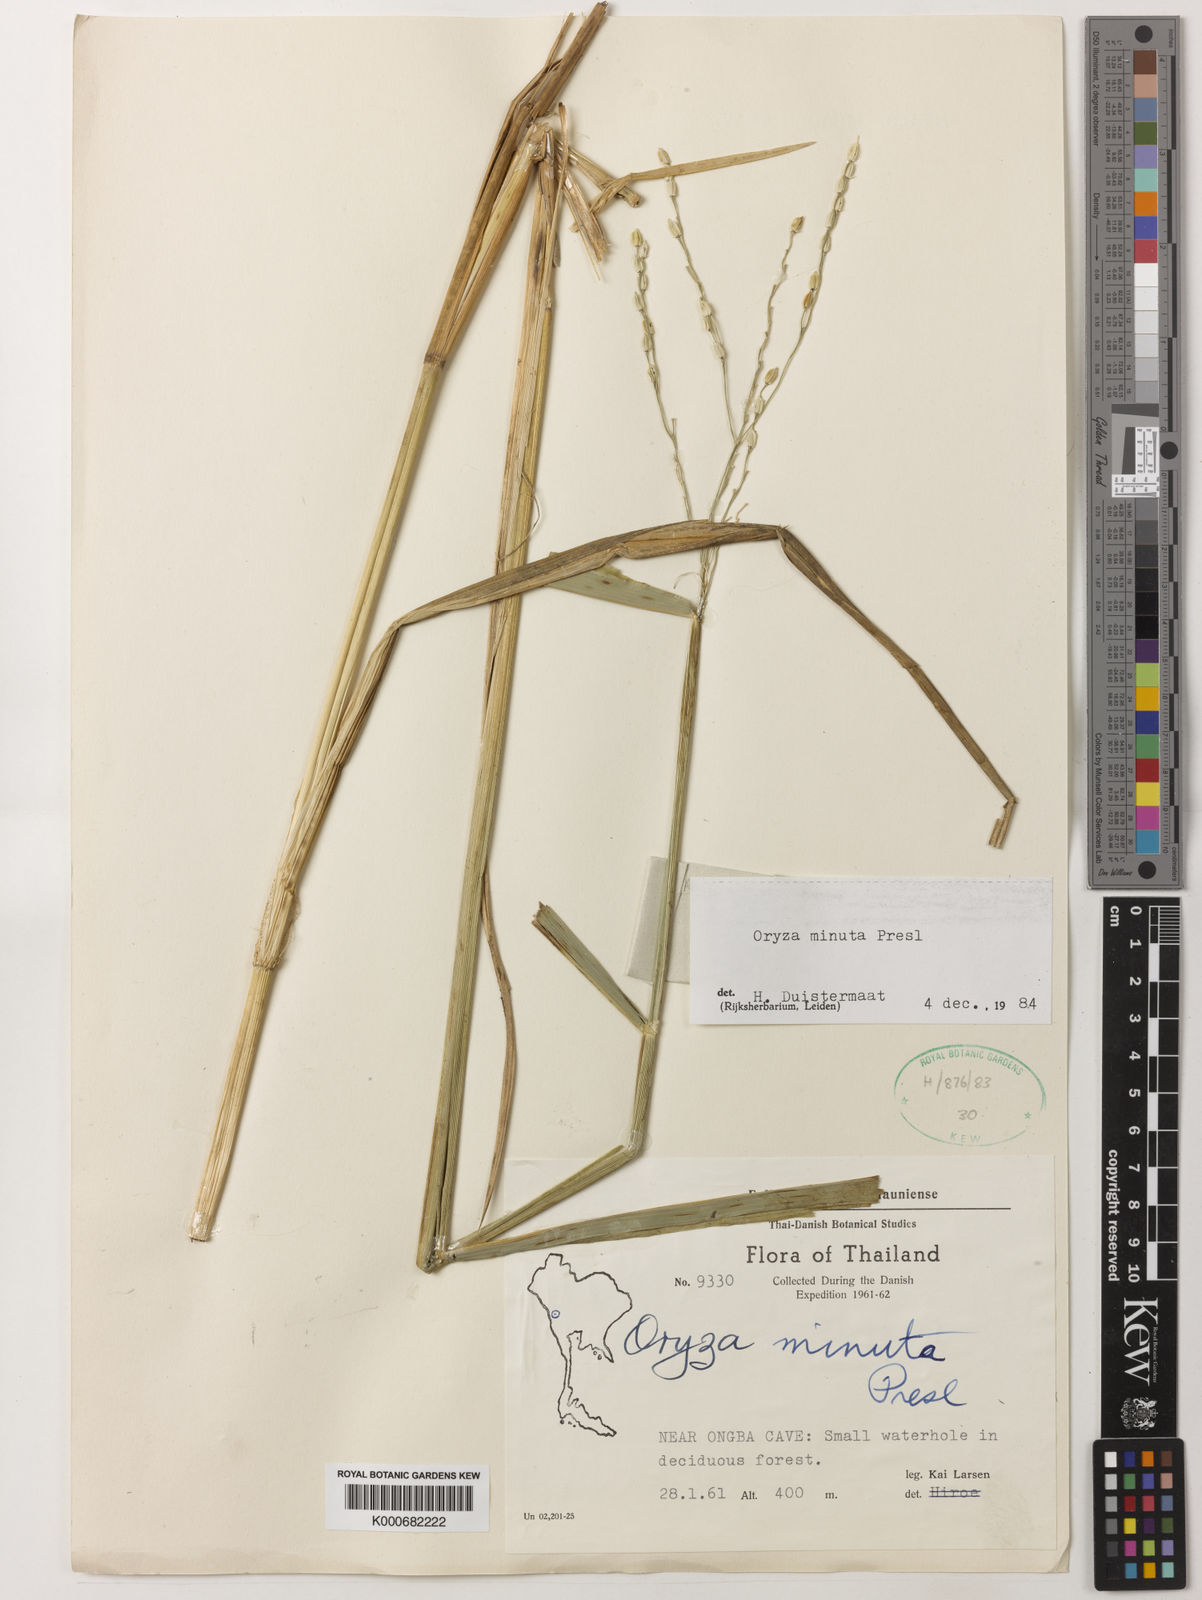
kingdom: Plantae
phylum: Tracheophyta
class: Liliopsida
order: Poales
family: Poaceae
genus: Oryza
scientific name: Oryza minuta
